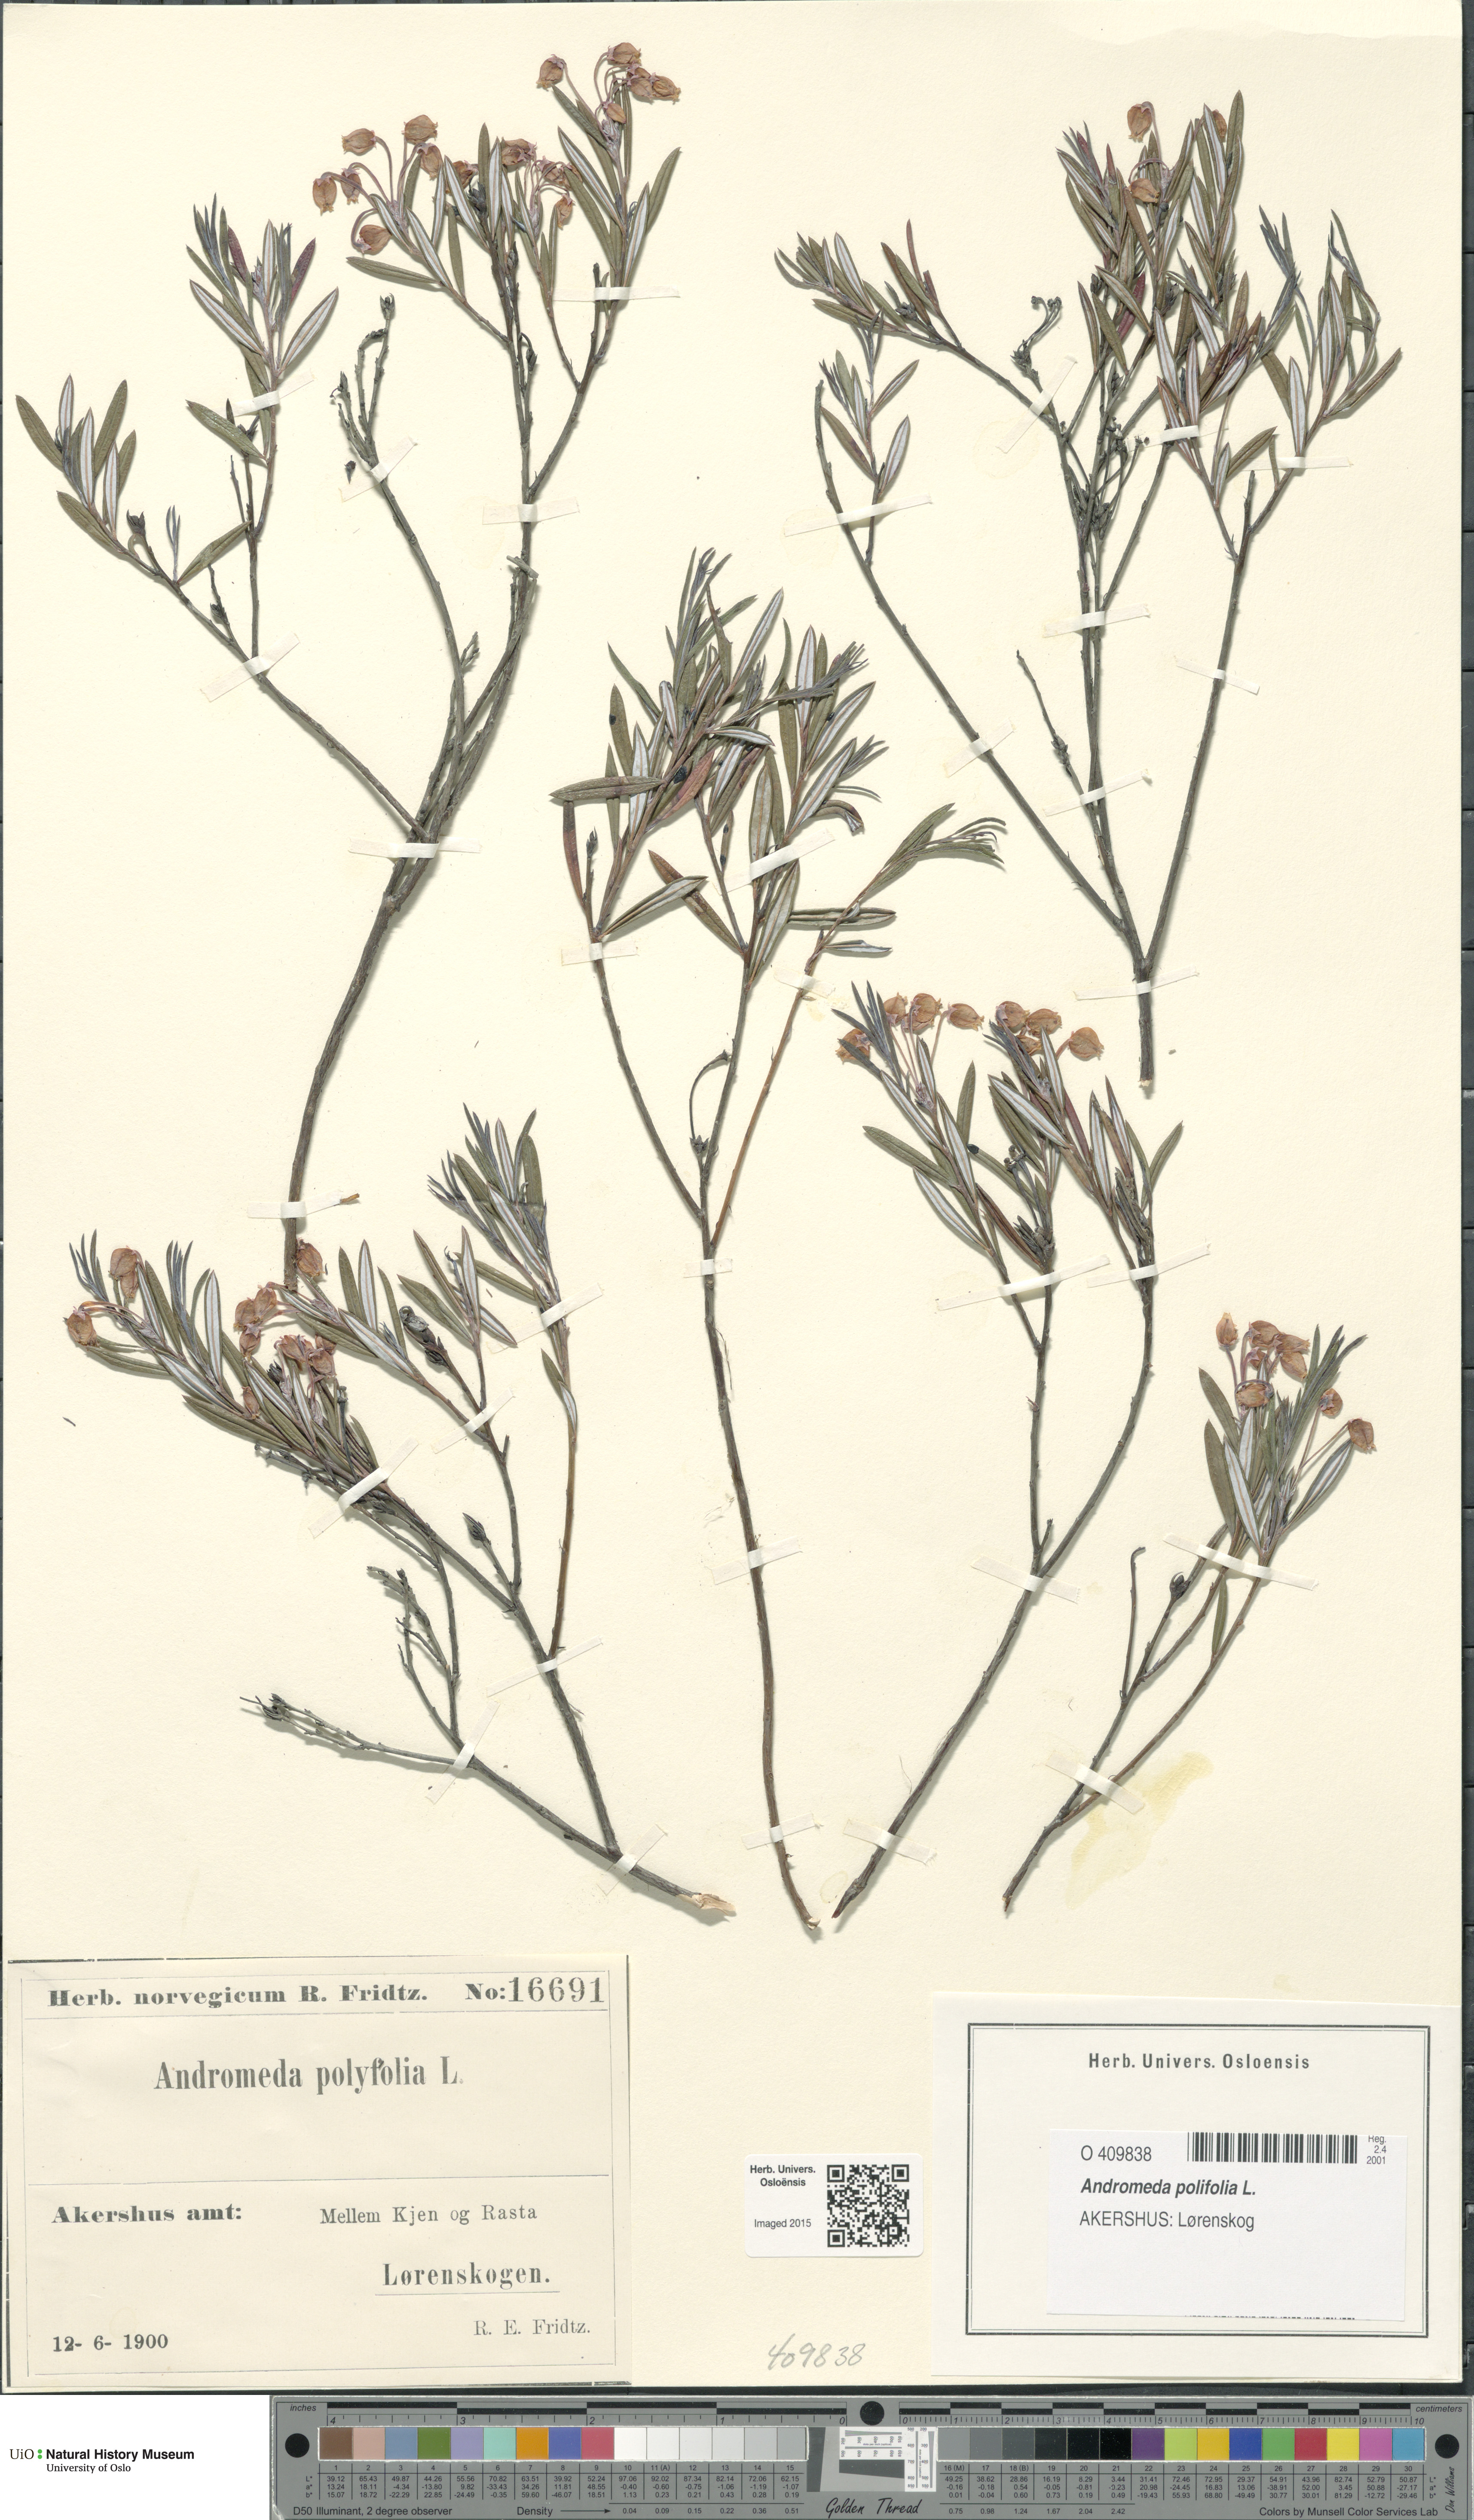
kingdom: Plantae
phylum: Tracheophyta
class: Magnoliopsida
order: Ericales
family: Ericaceae
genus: Andromeda
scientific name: Andromeda polifolia
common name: Bog-rosemary
